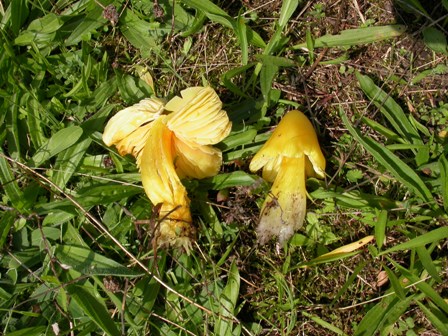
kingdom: Fungi
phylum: Basidiomycota
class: Agaricomycetes
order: Agaricales
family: Hygrophoraceae
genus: Hygrocybe
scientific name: Hygrocybe acutoconica
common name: spidspuklet vokshat
